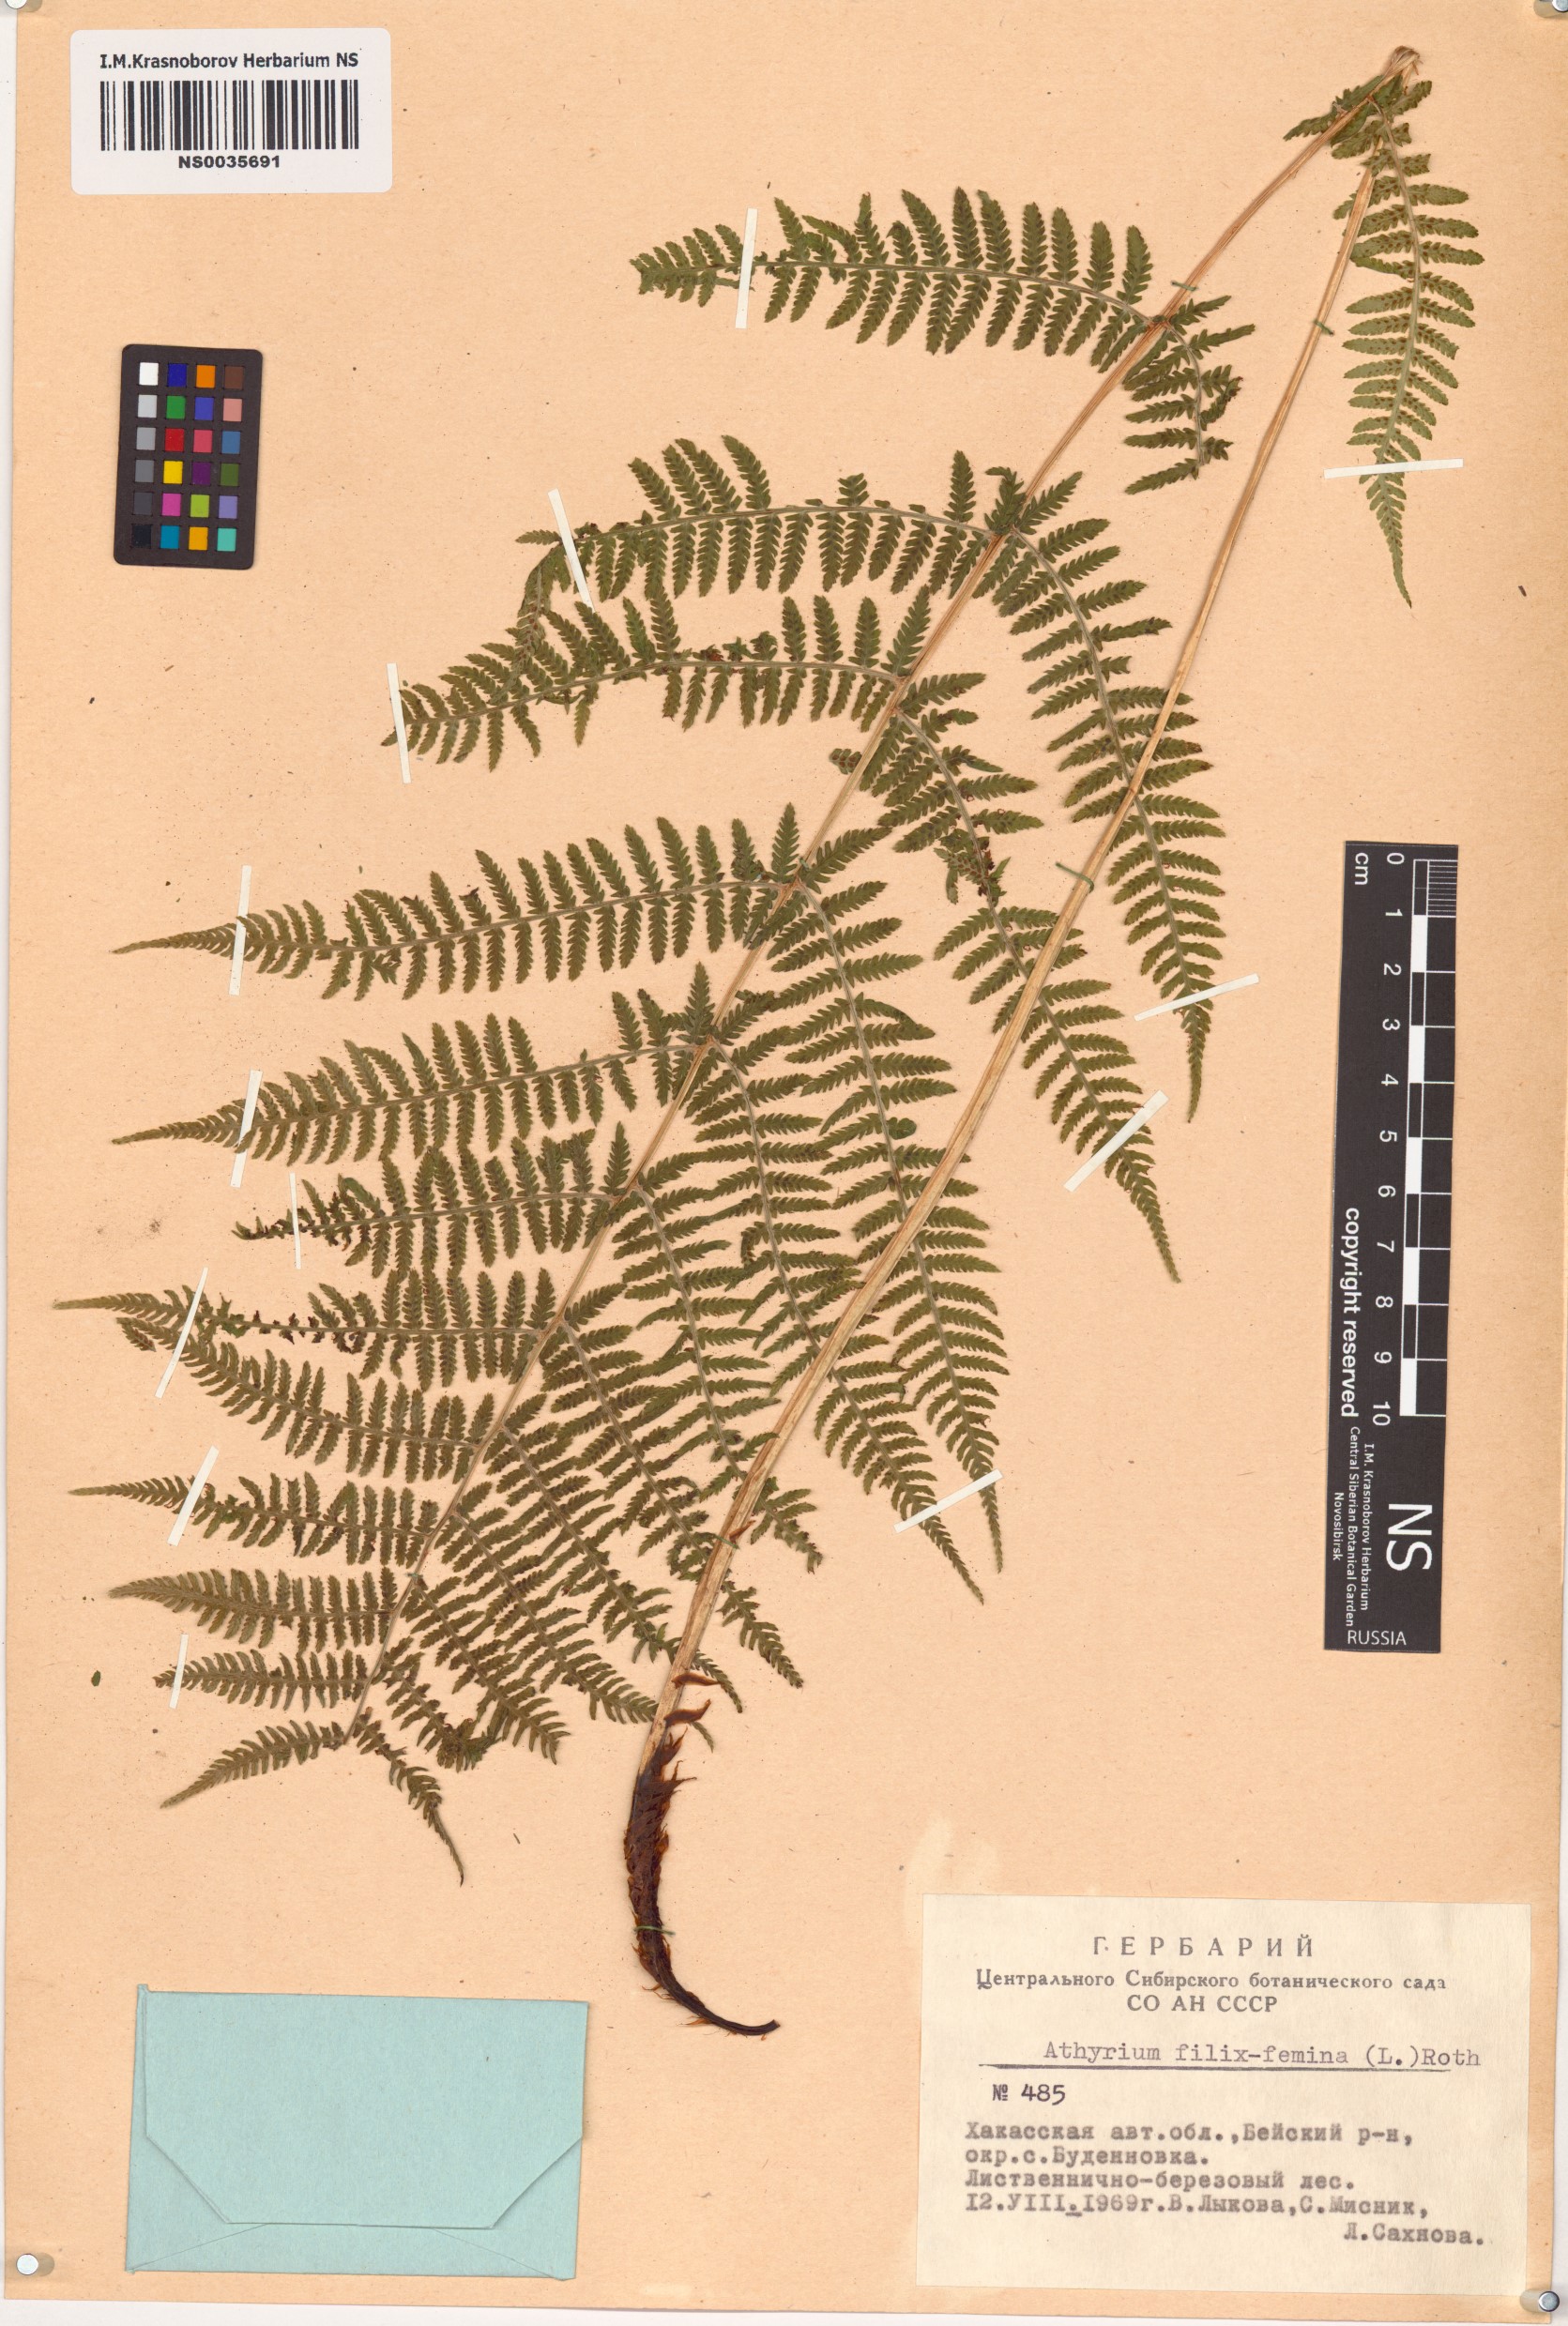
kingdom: Plantae
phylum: Tracheophyta
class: Polypodiopsida
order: Polypodiales
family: Athyriaceae
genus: Athyrium
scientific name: Athyrium filix-femina
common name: Lady fern
